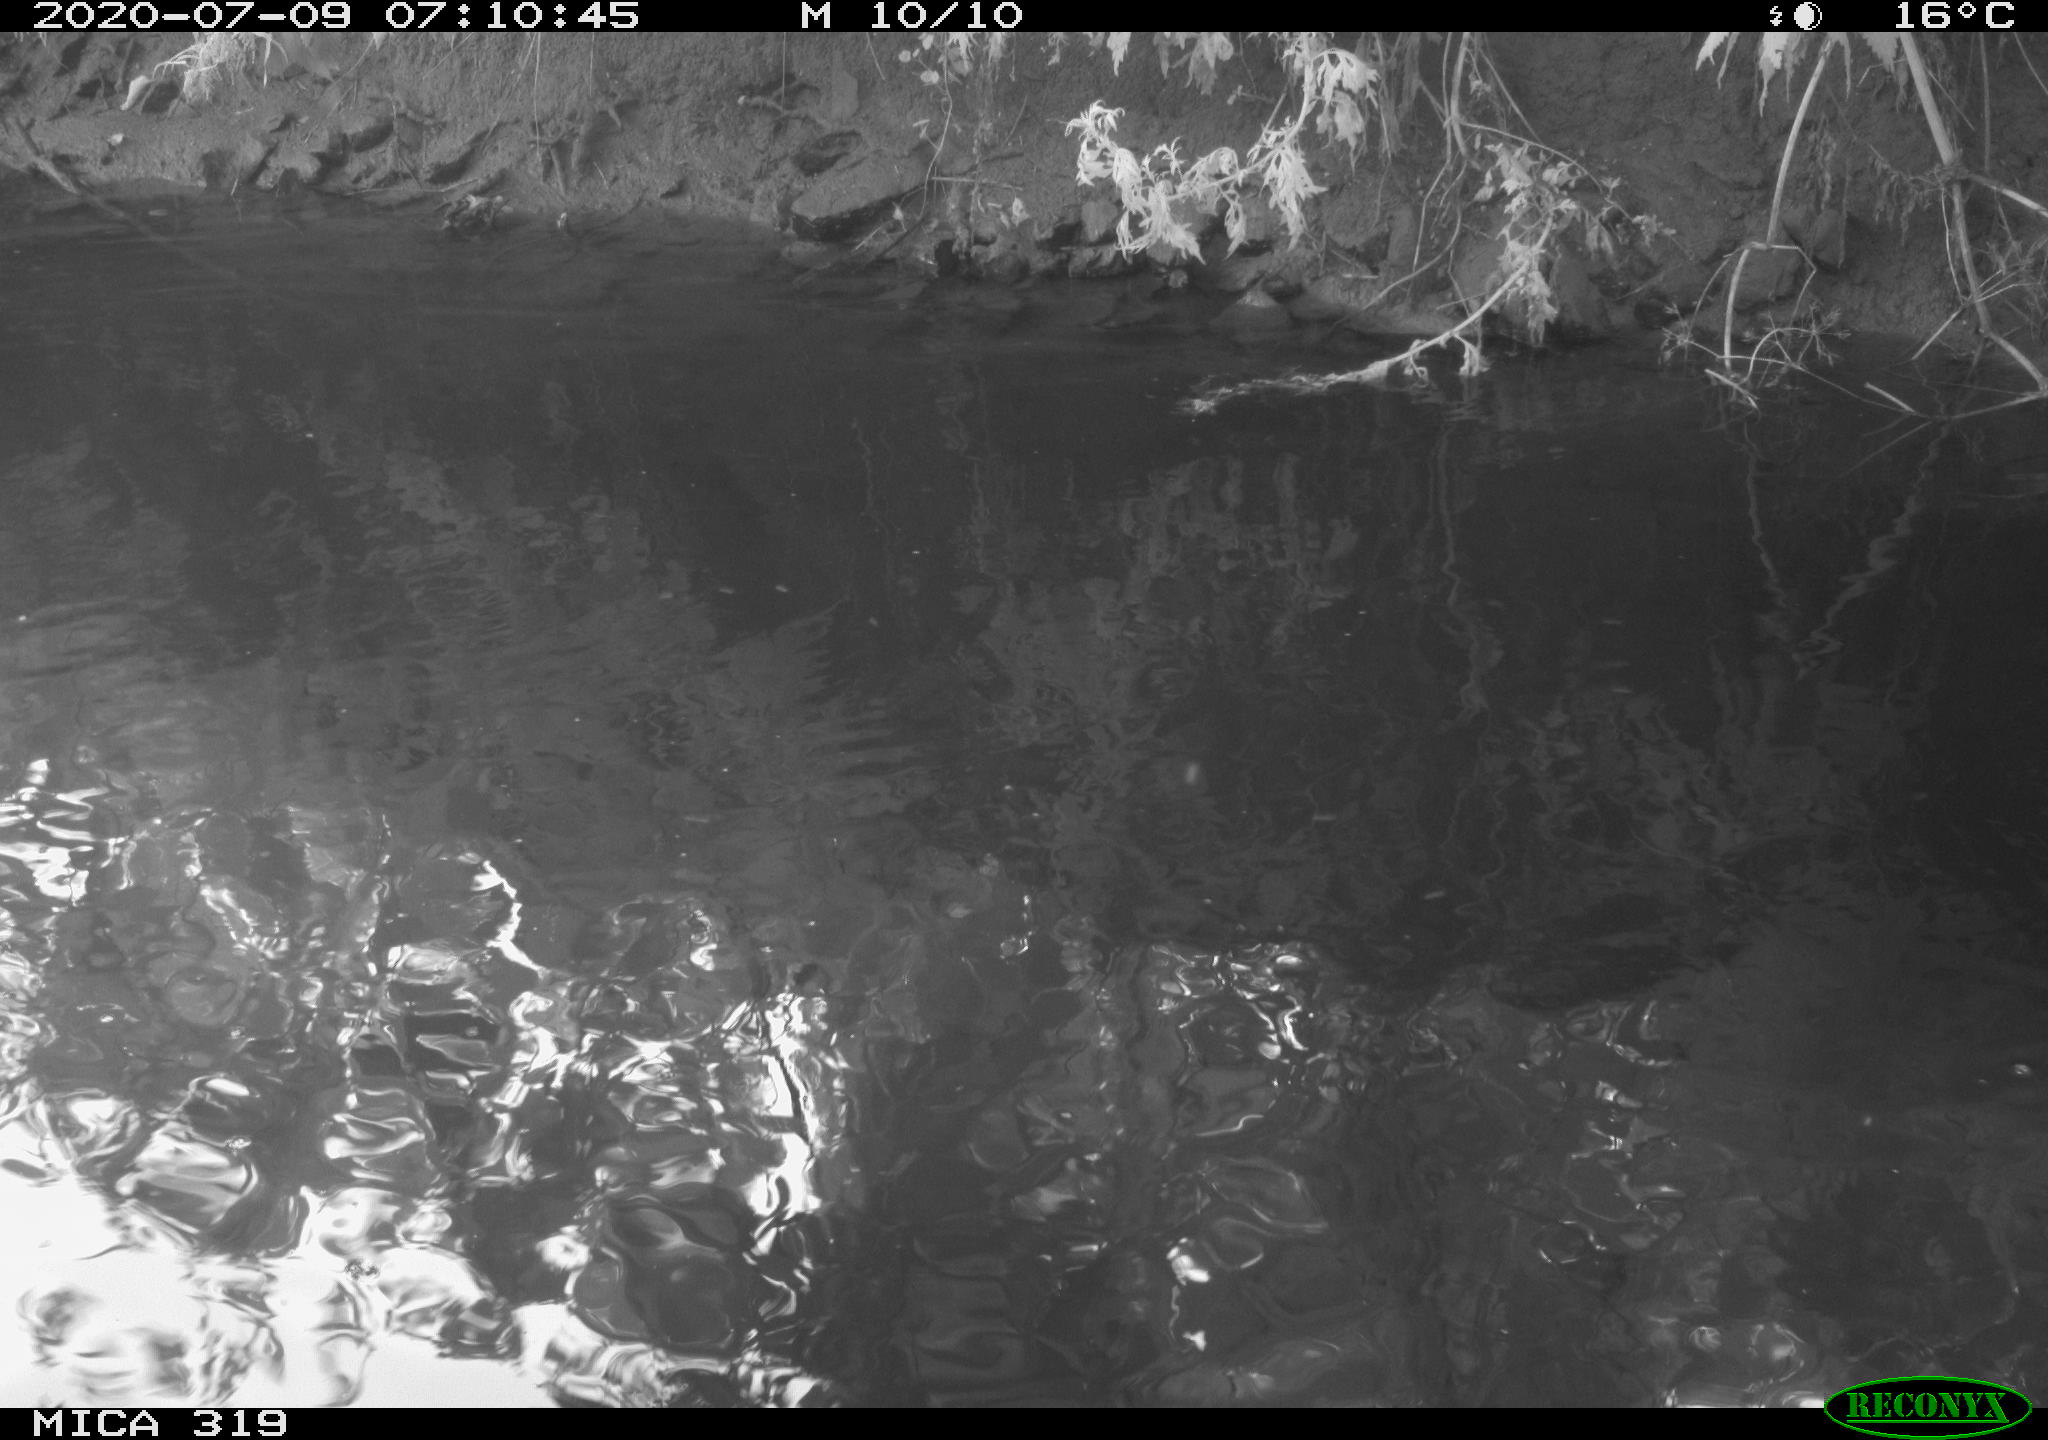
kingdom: Animalia
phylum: Chordata
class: Aves
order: Anseriformes
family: Anatidae
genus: Anas
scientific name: Anas platyrhynchos
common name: Mallard
